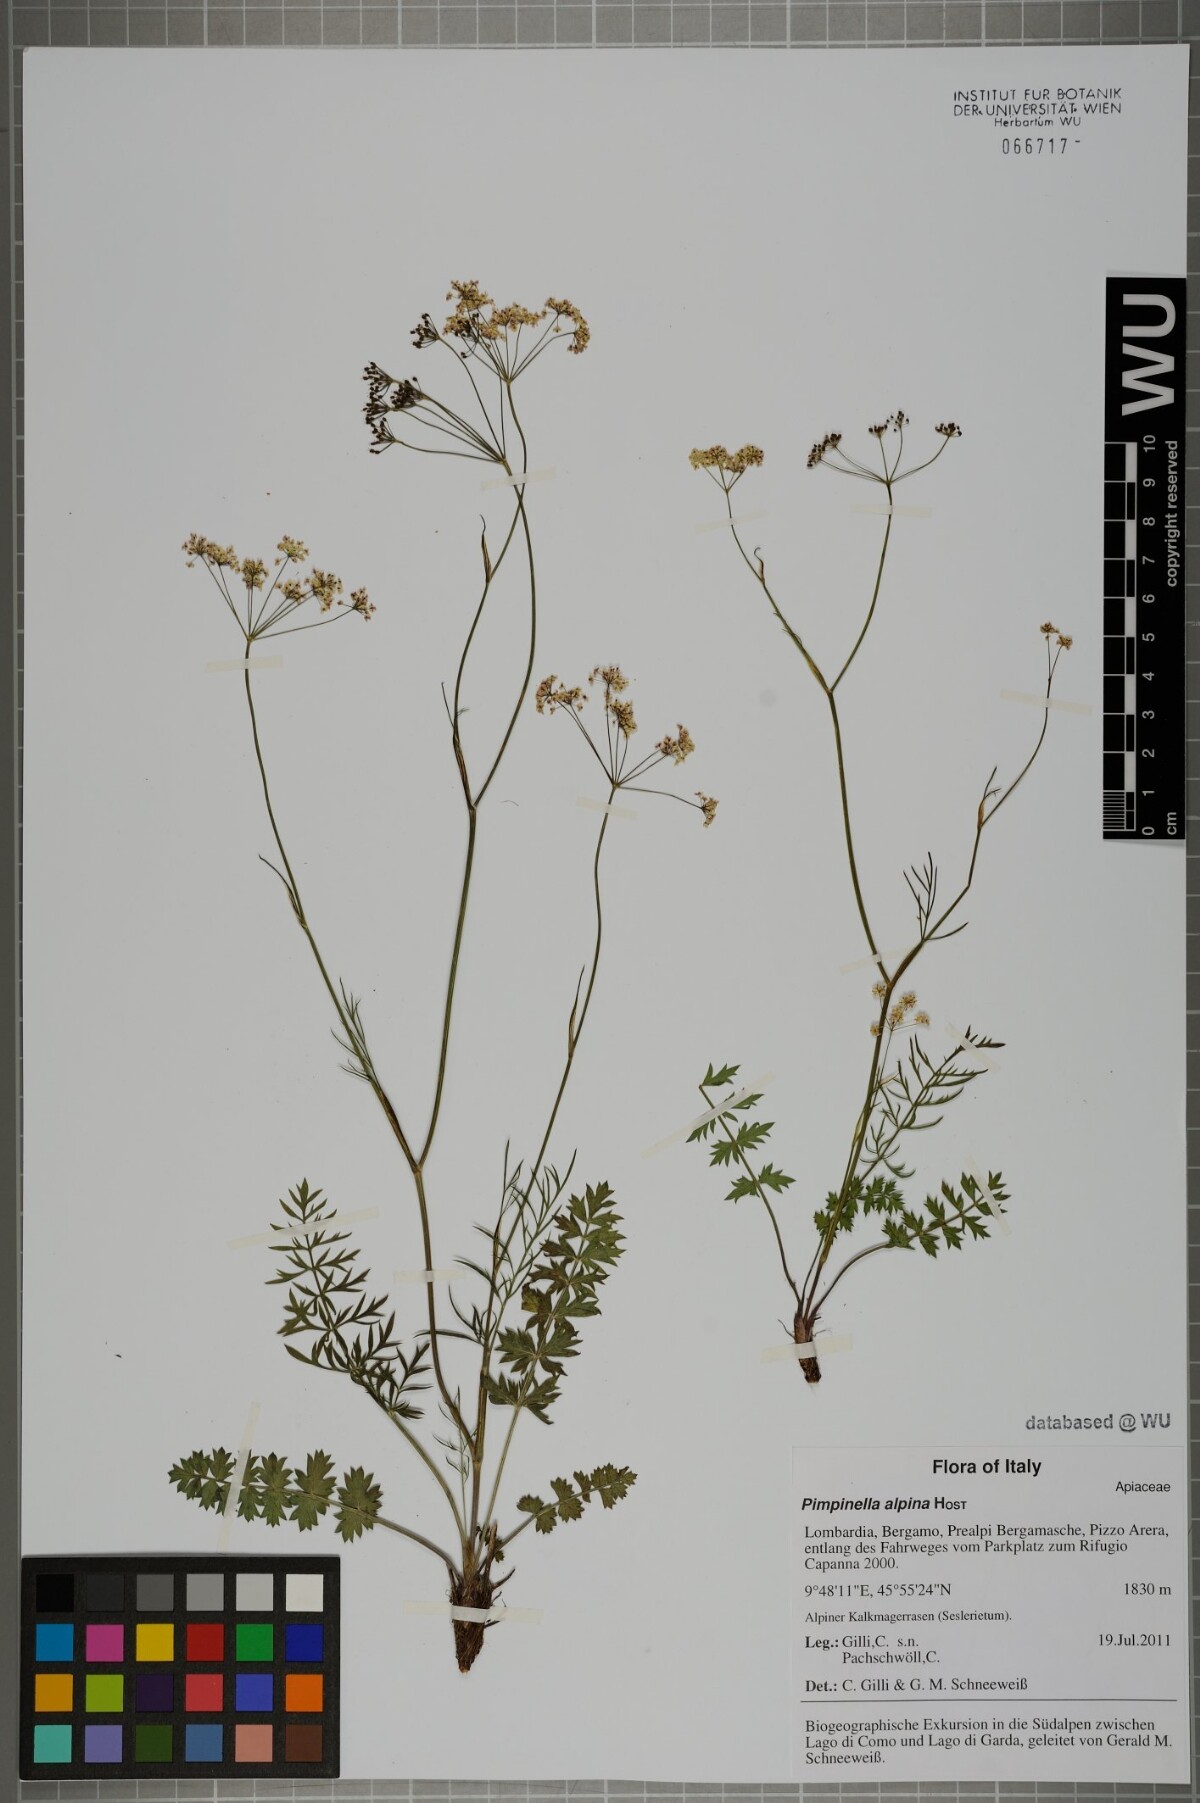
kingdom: Plantae
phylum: Tracheophyta
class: Magnoliopsida
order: Apiales
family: Apiaceae
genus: Pimpinella
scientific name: Pimpinella alpina
